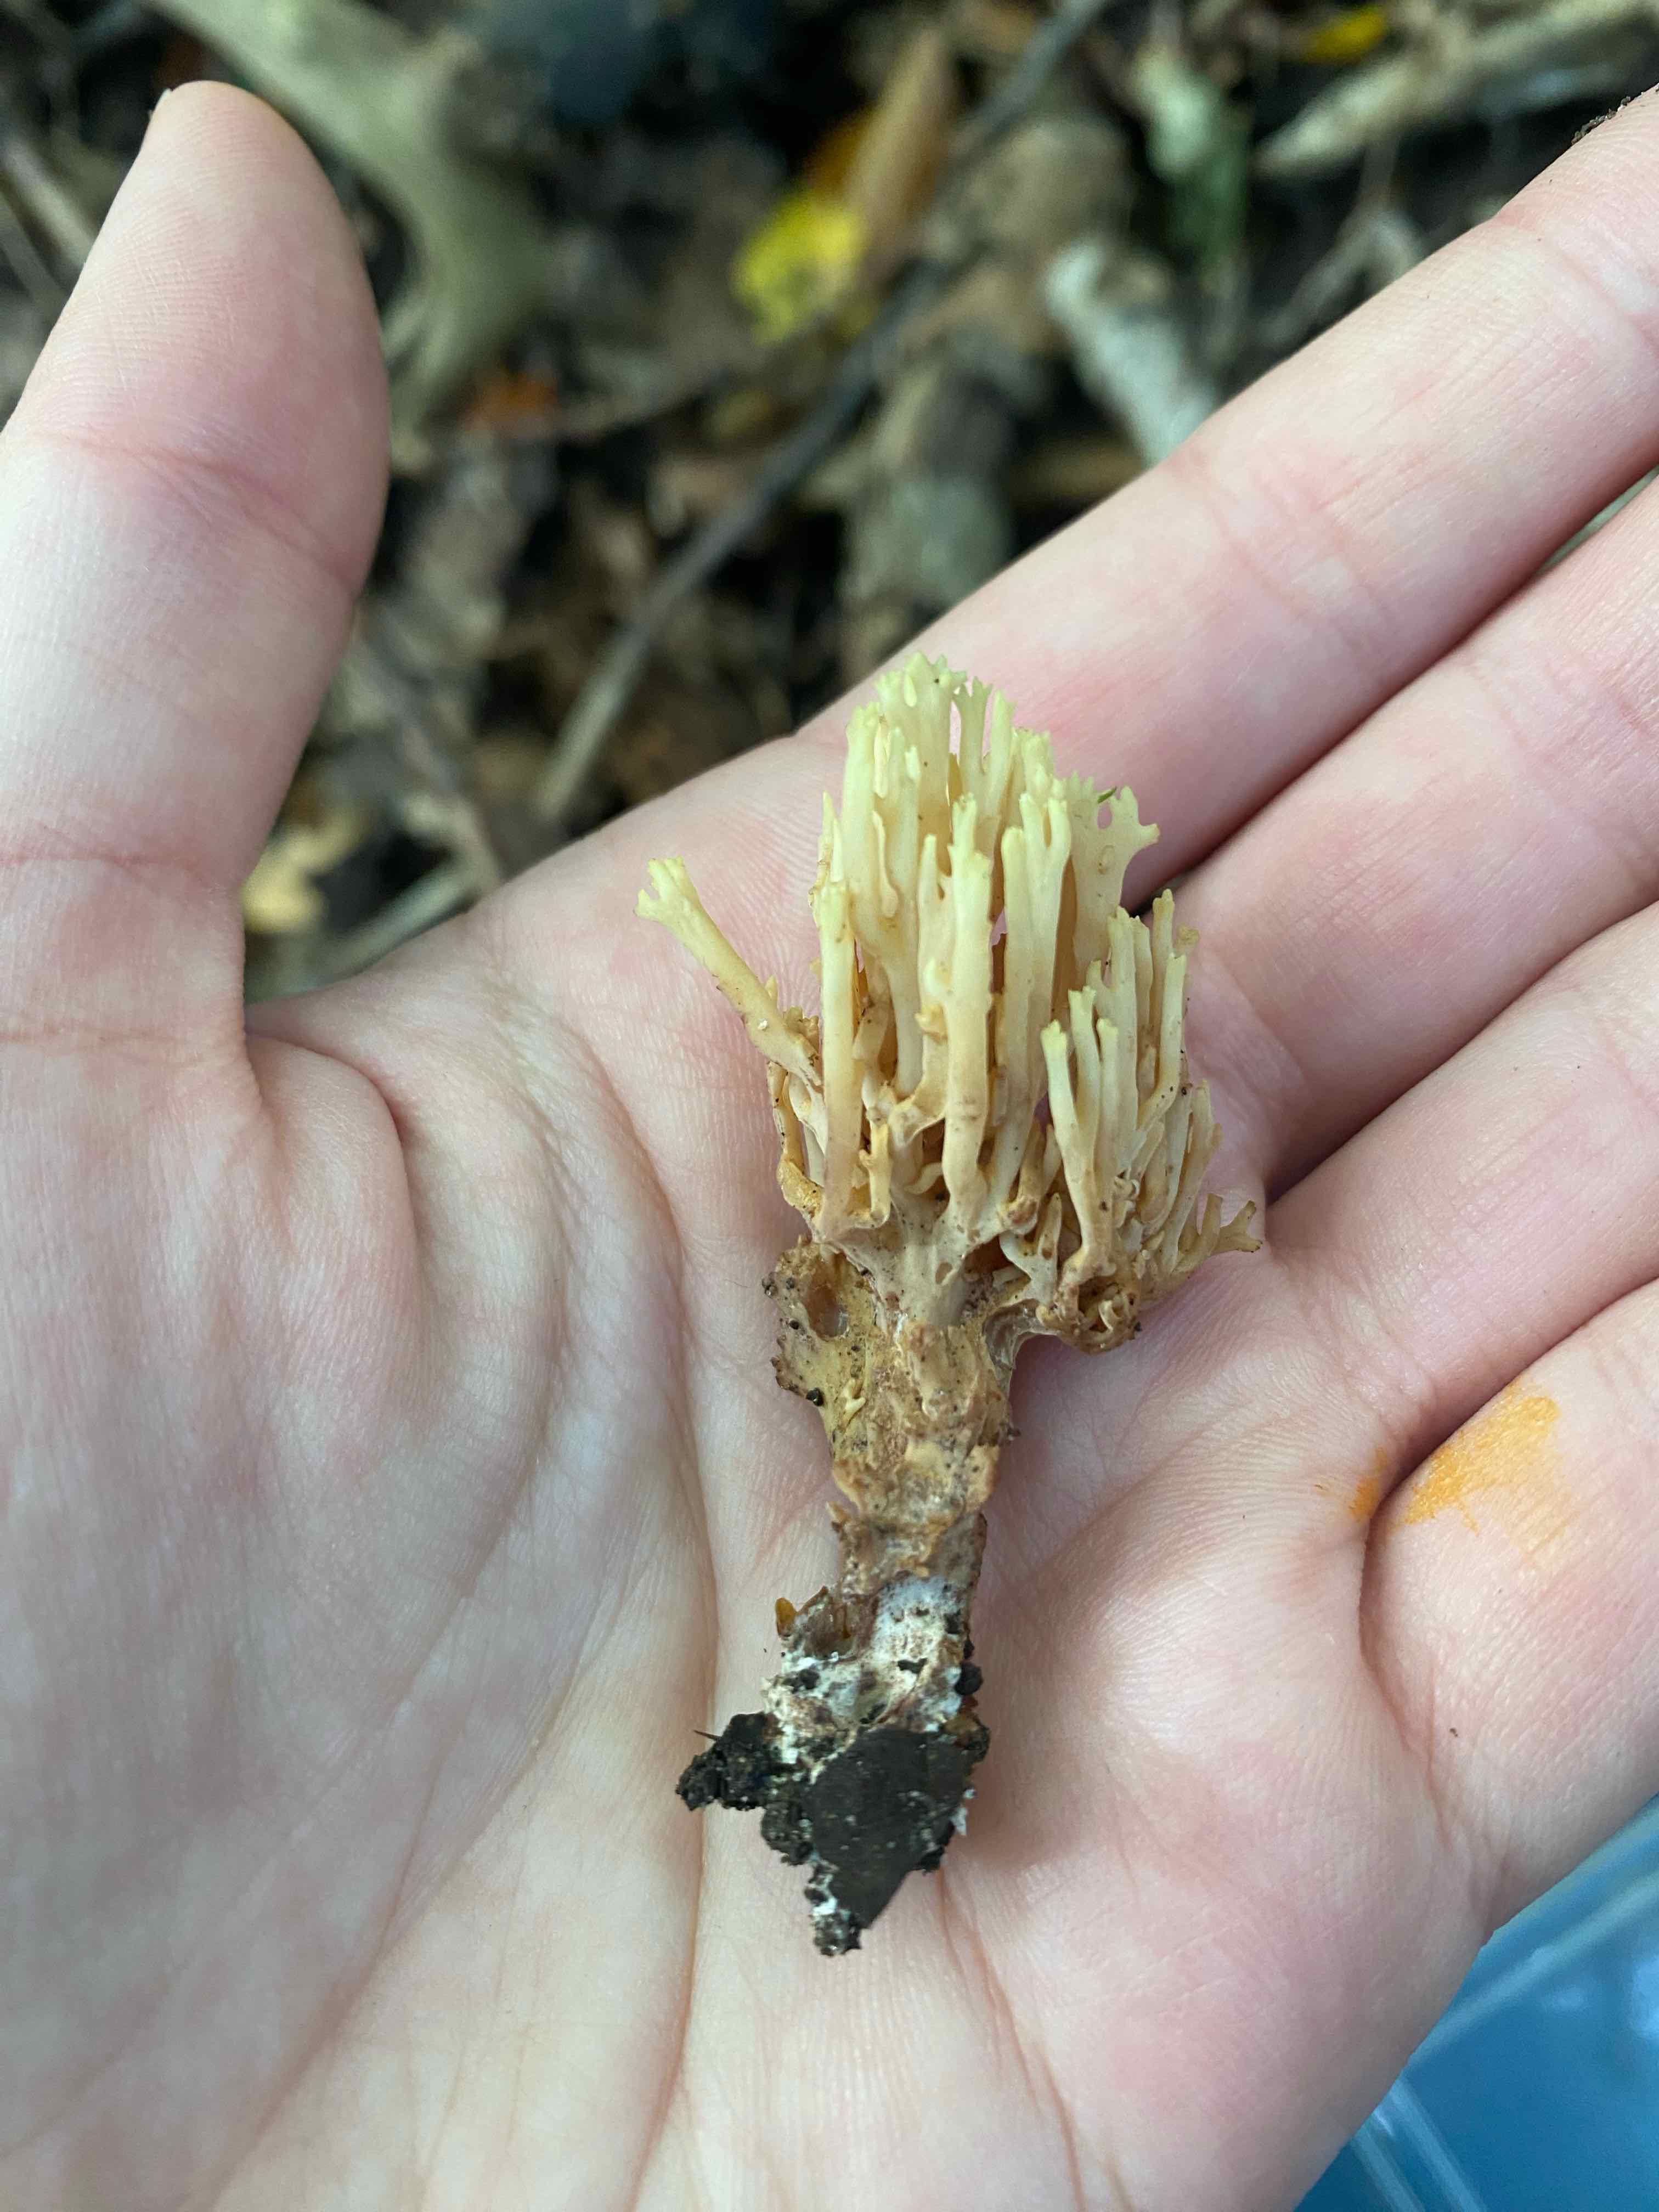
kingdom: Fungi
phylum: Basidiomycota
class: Agaricomycetes
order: Gomphales
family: Gomphaceae
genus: Ramaria
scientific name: Ramaria stricta
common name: rank koralsvamp
